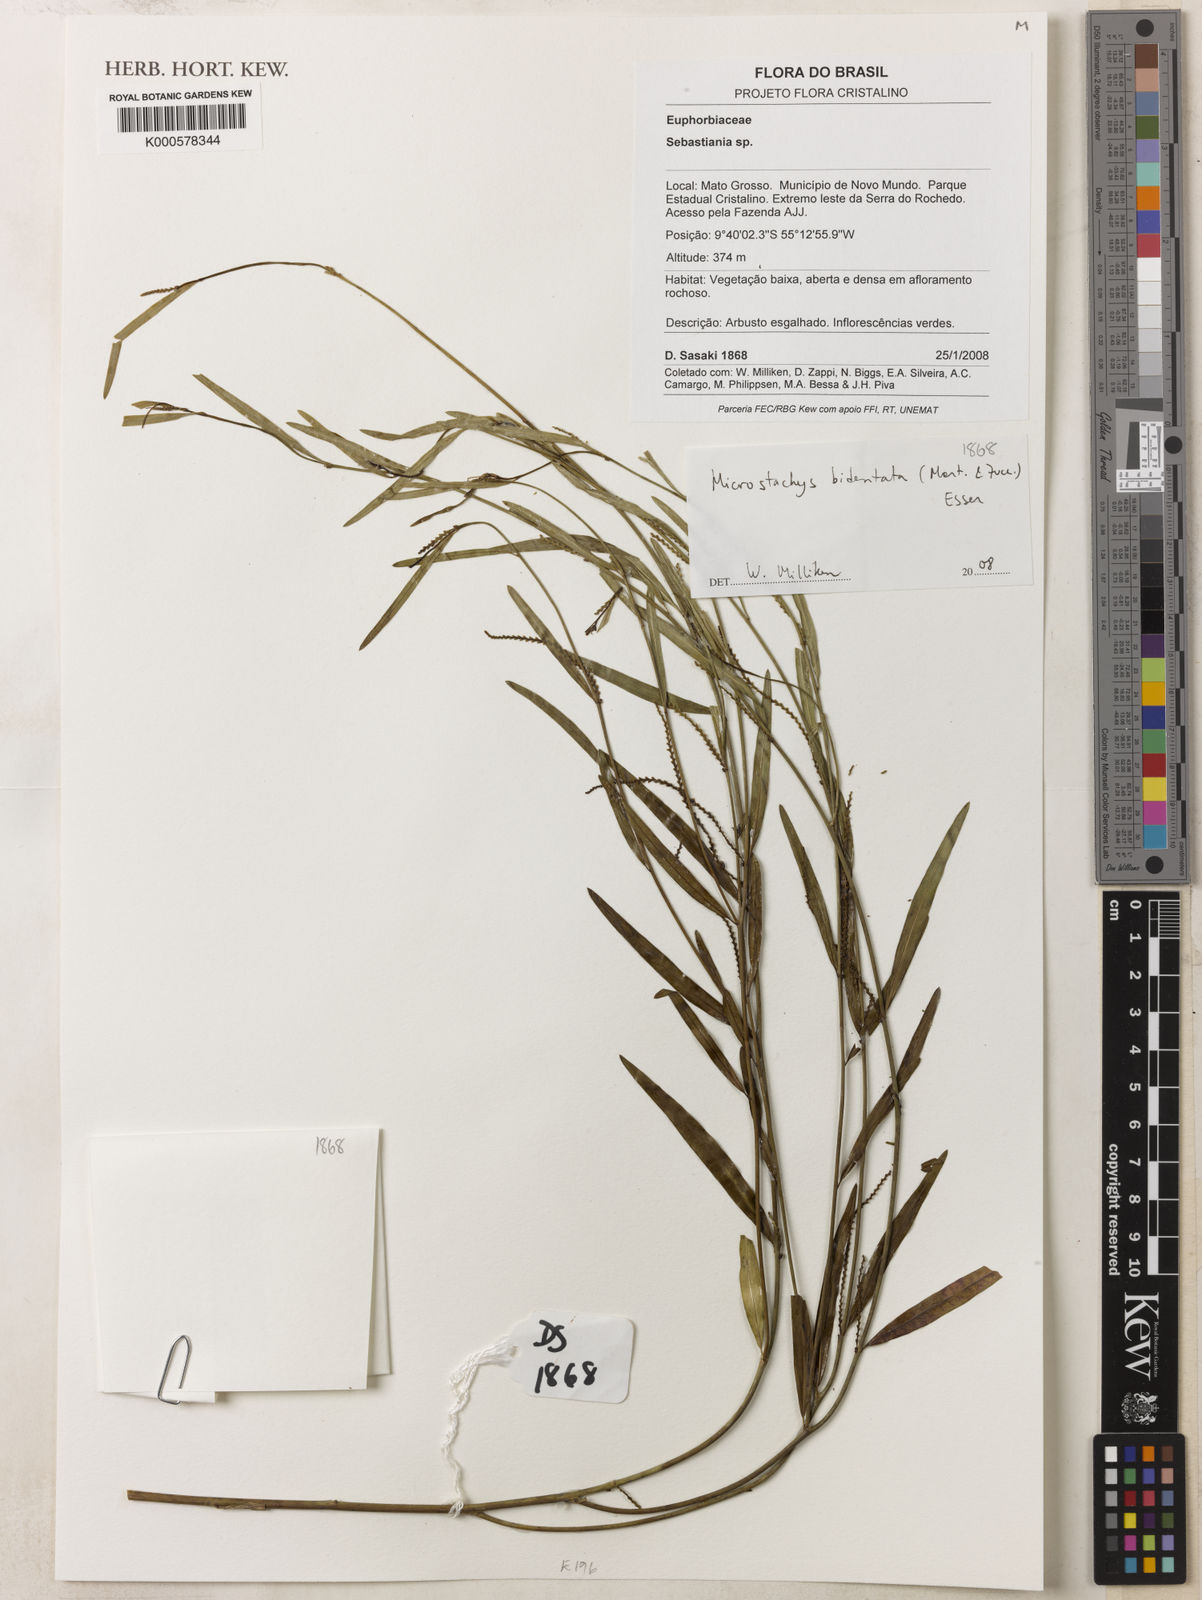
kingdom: Plantae
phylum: Tracheophyta
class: Magnoliopsida
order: Malpighiales
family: Euphorbiaceae
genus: Microstachys
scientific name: Microstachys bidentata
